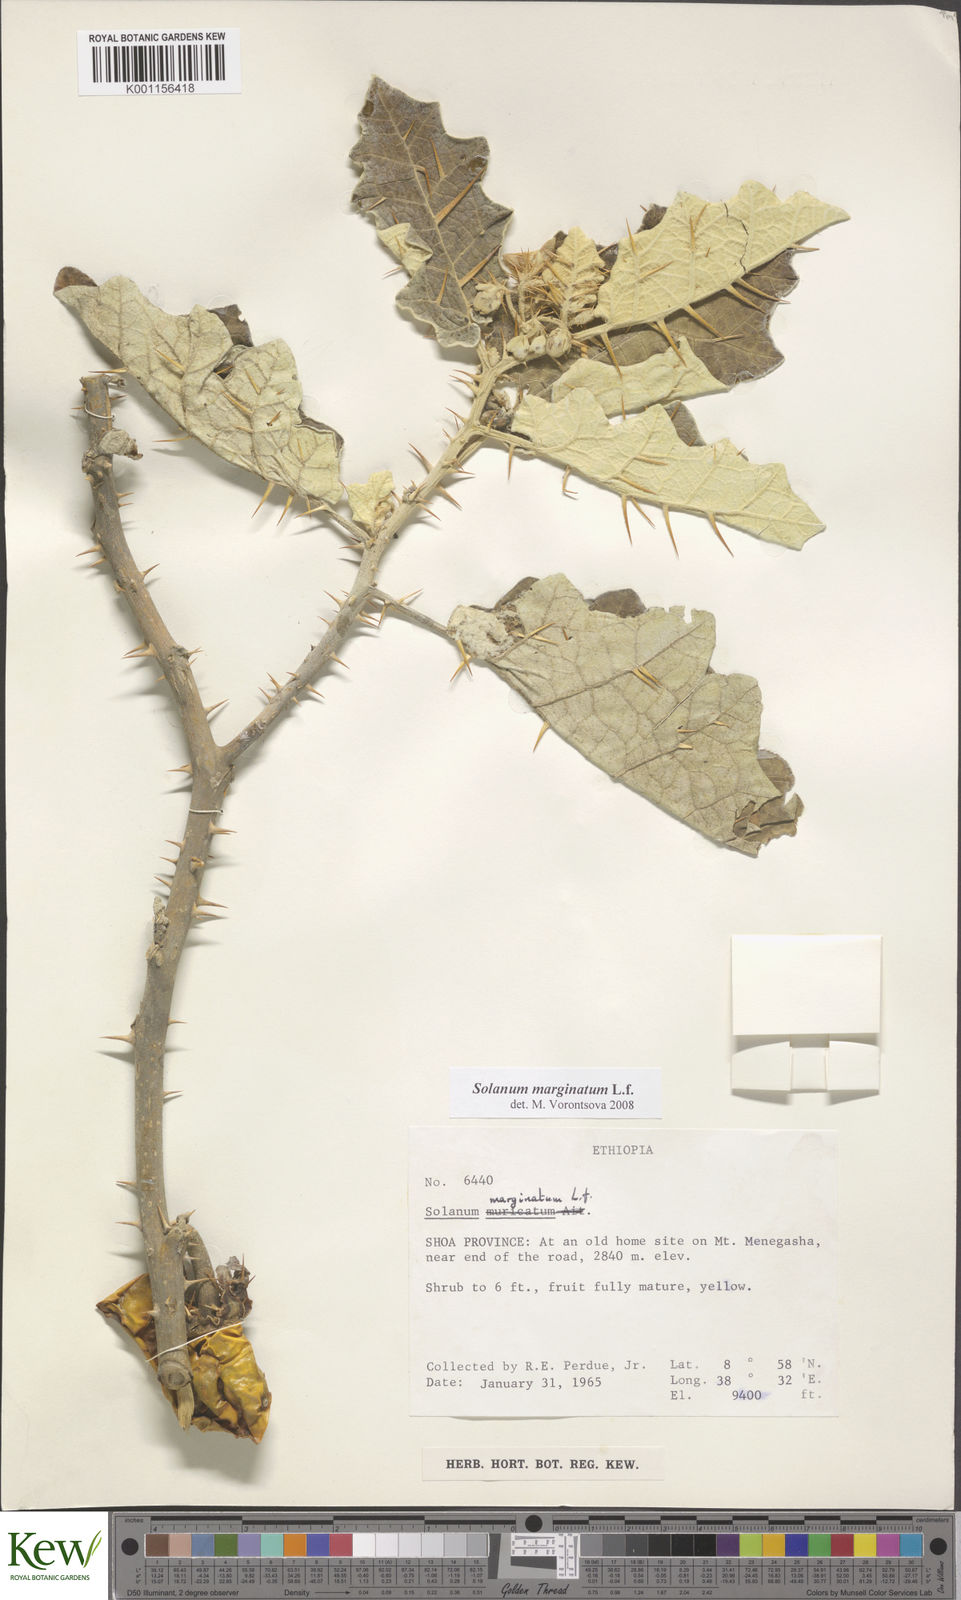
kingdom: Plantae
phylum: Tracheophyta
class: Magnoliopsida
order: Solanales
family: Solanaceae
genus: Solanum
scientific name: Solanum marginatum
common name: Purple african nightshade
